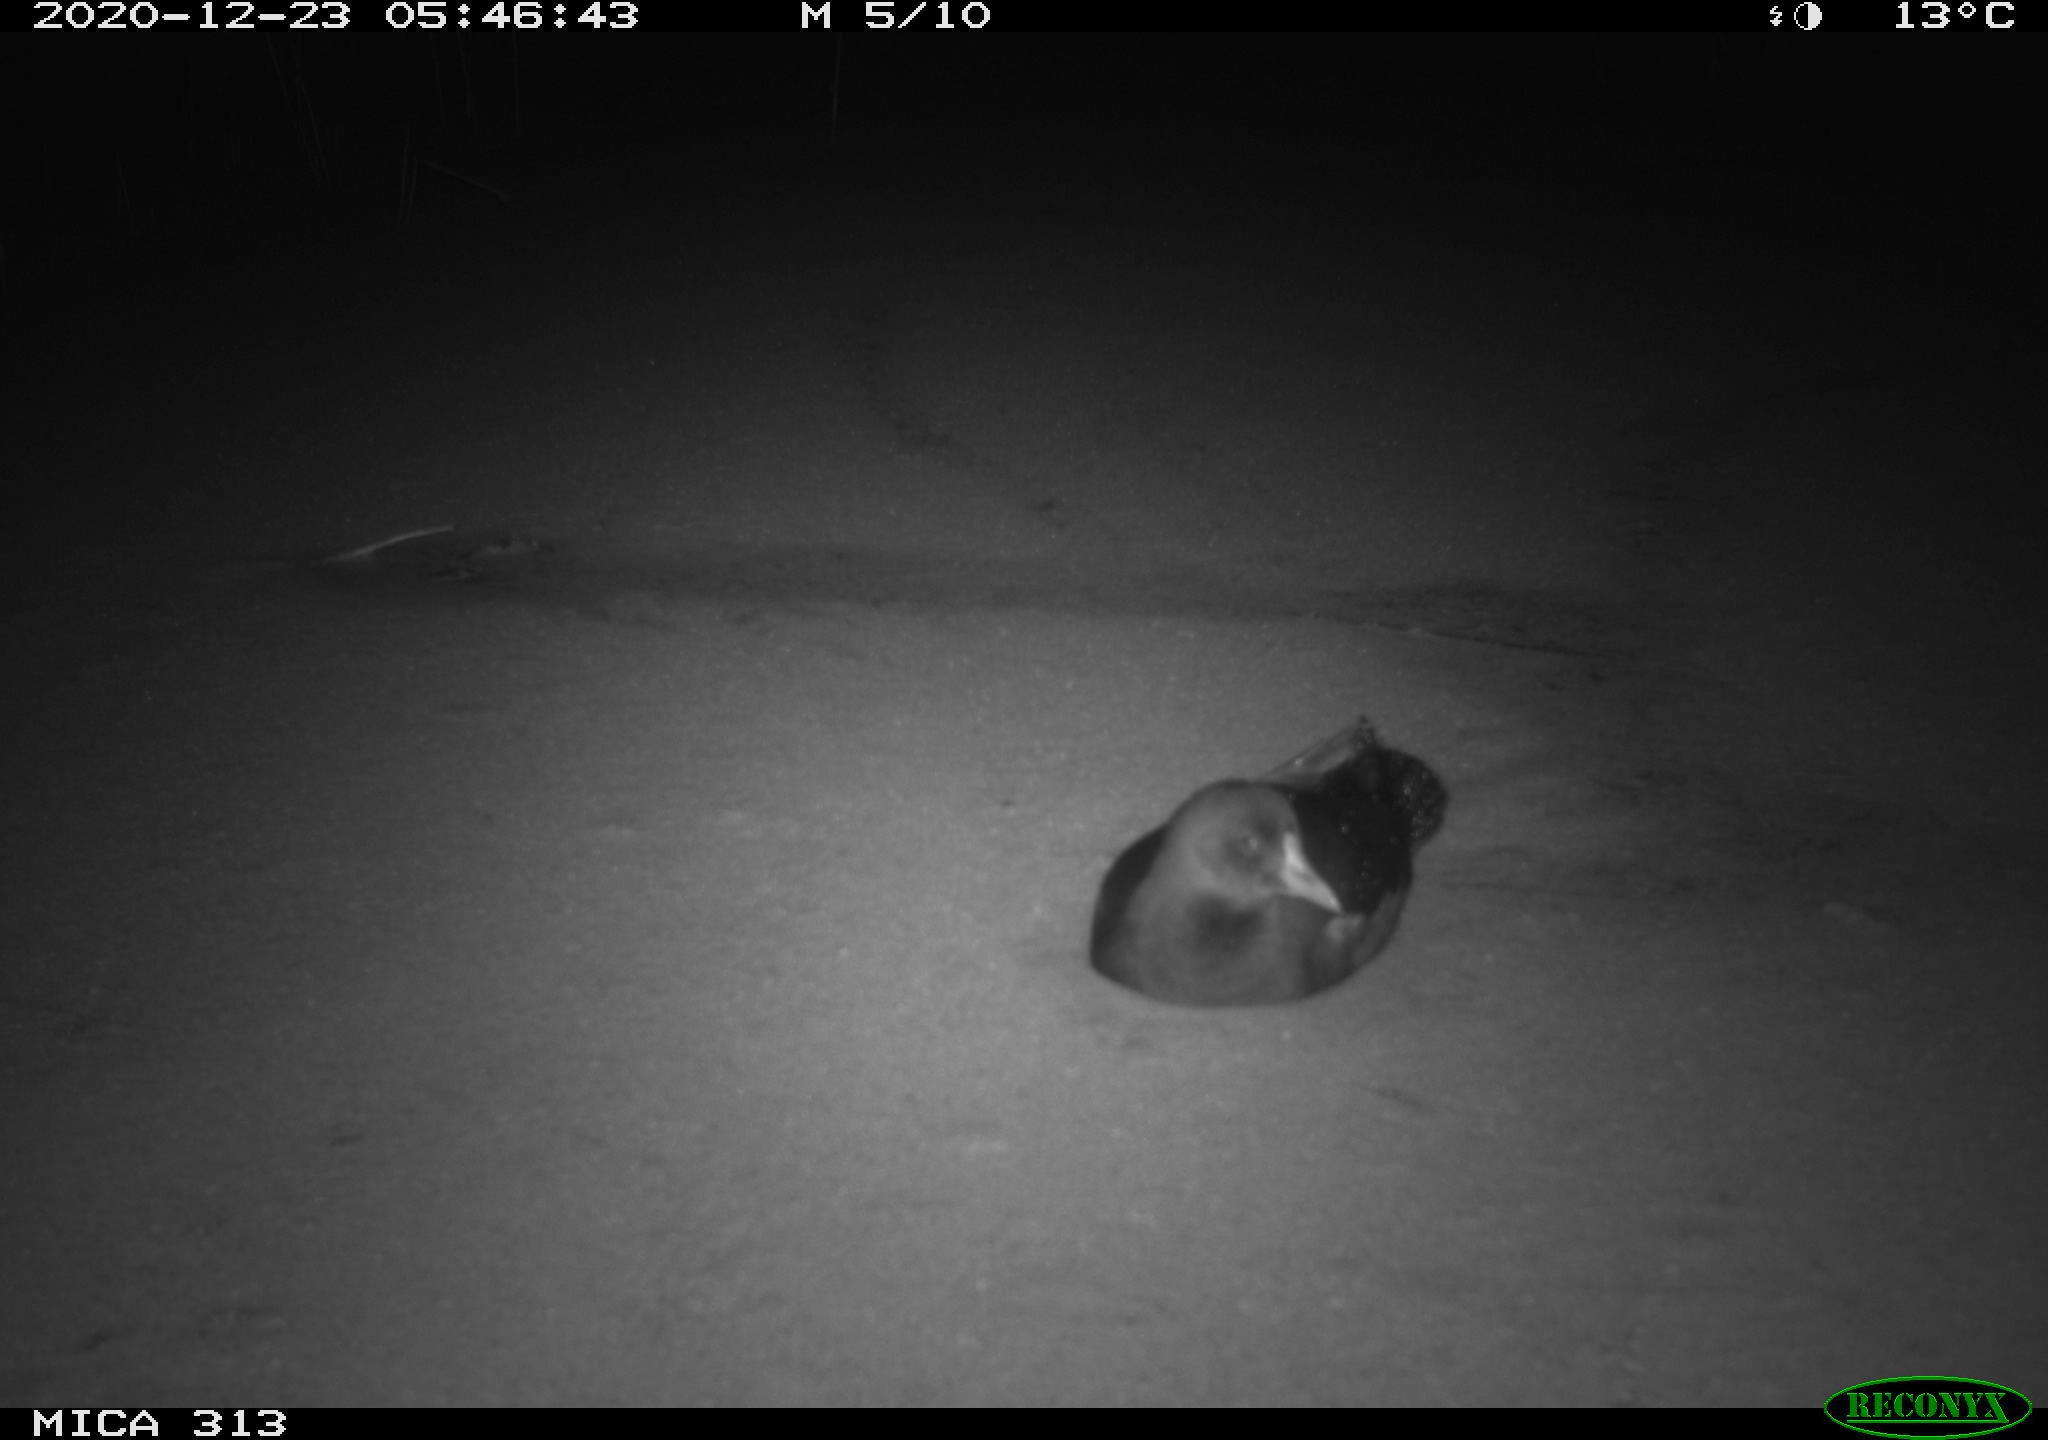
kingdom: Animalia
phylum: Chordata
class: Aves
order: Gruiformes
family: Rallidae
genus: Gallinula
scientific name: Gallinula chloropus
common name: Common moorhen
